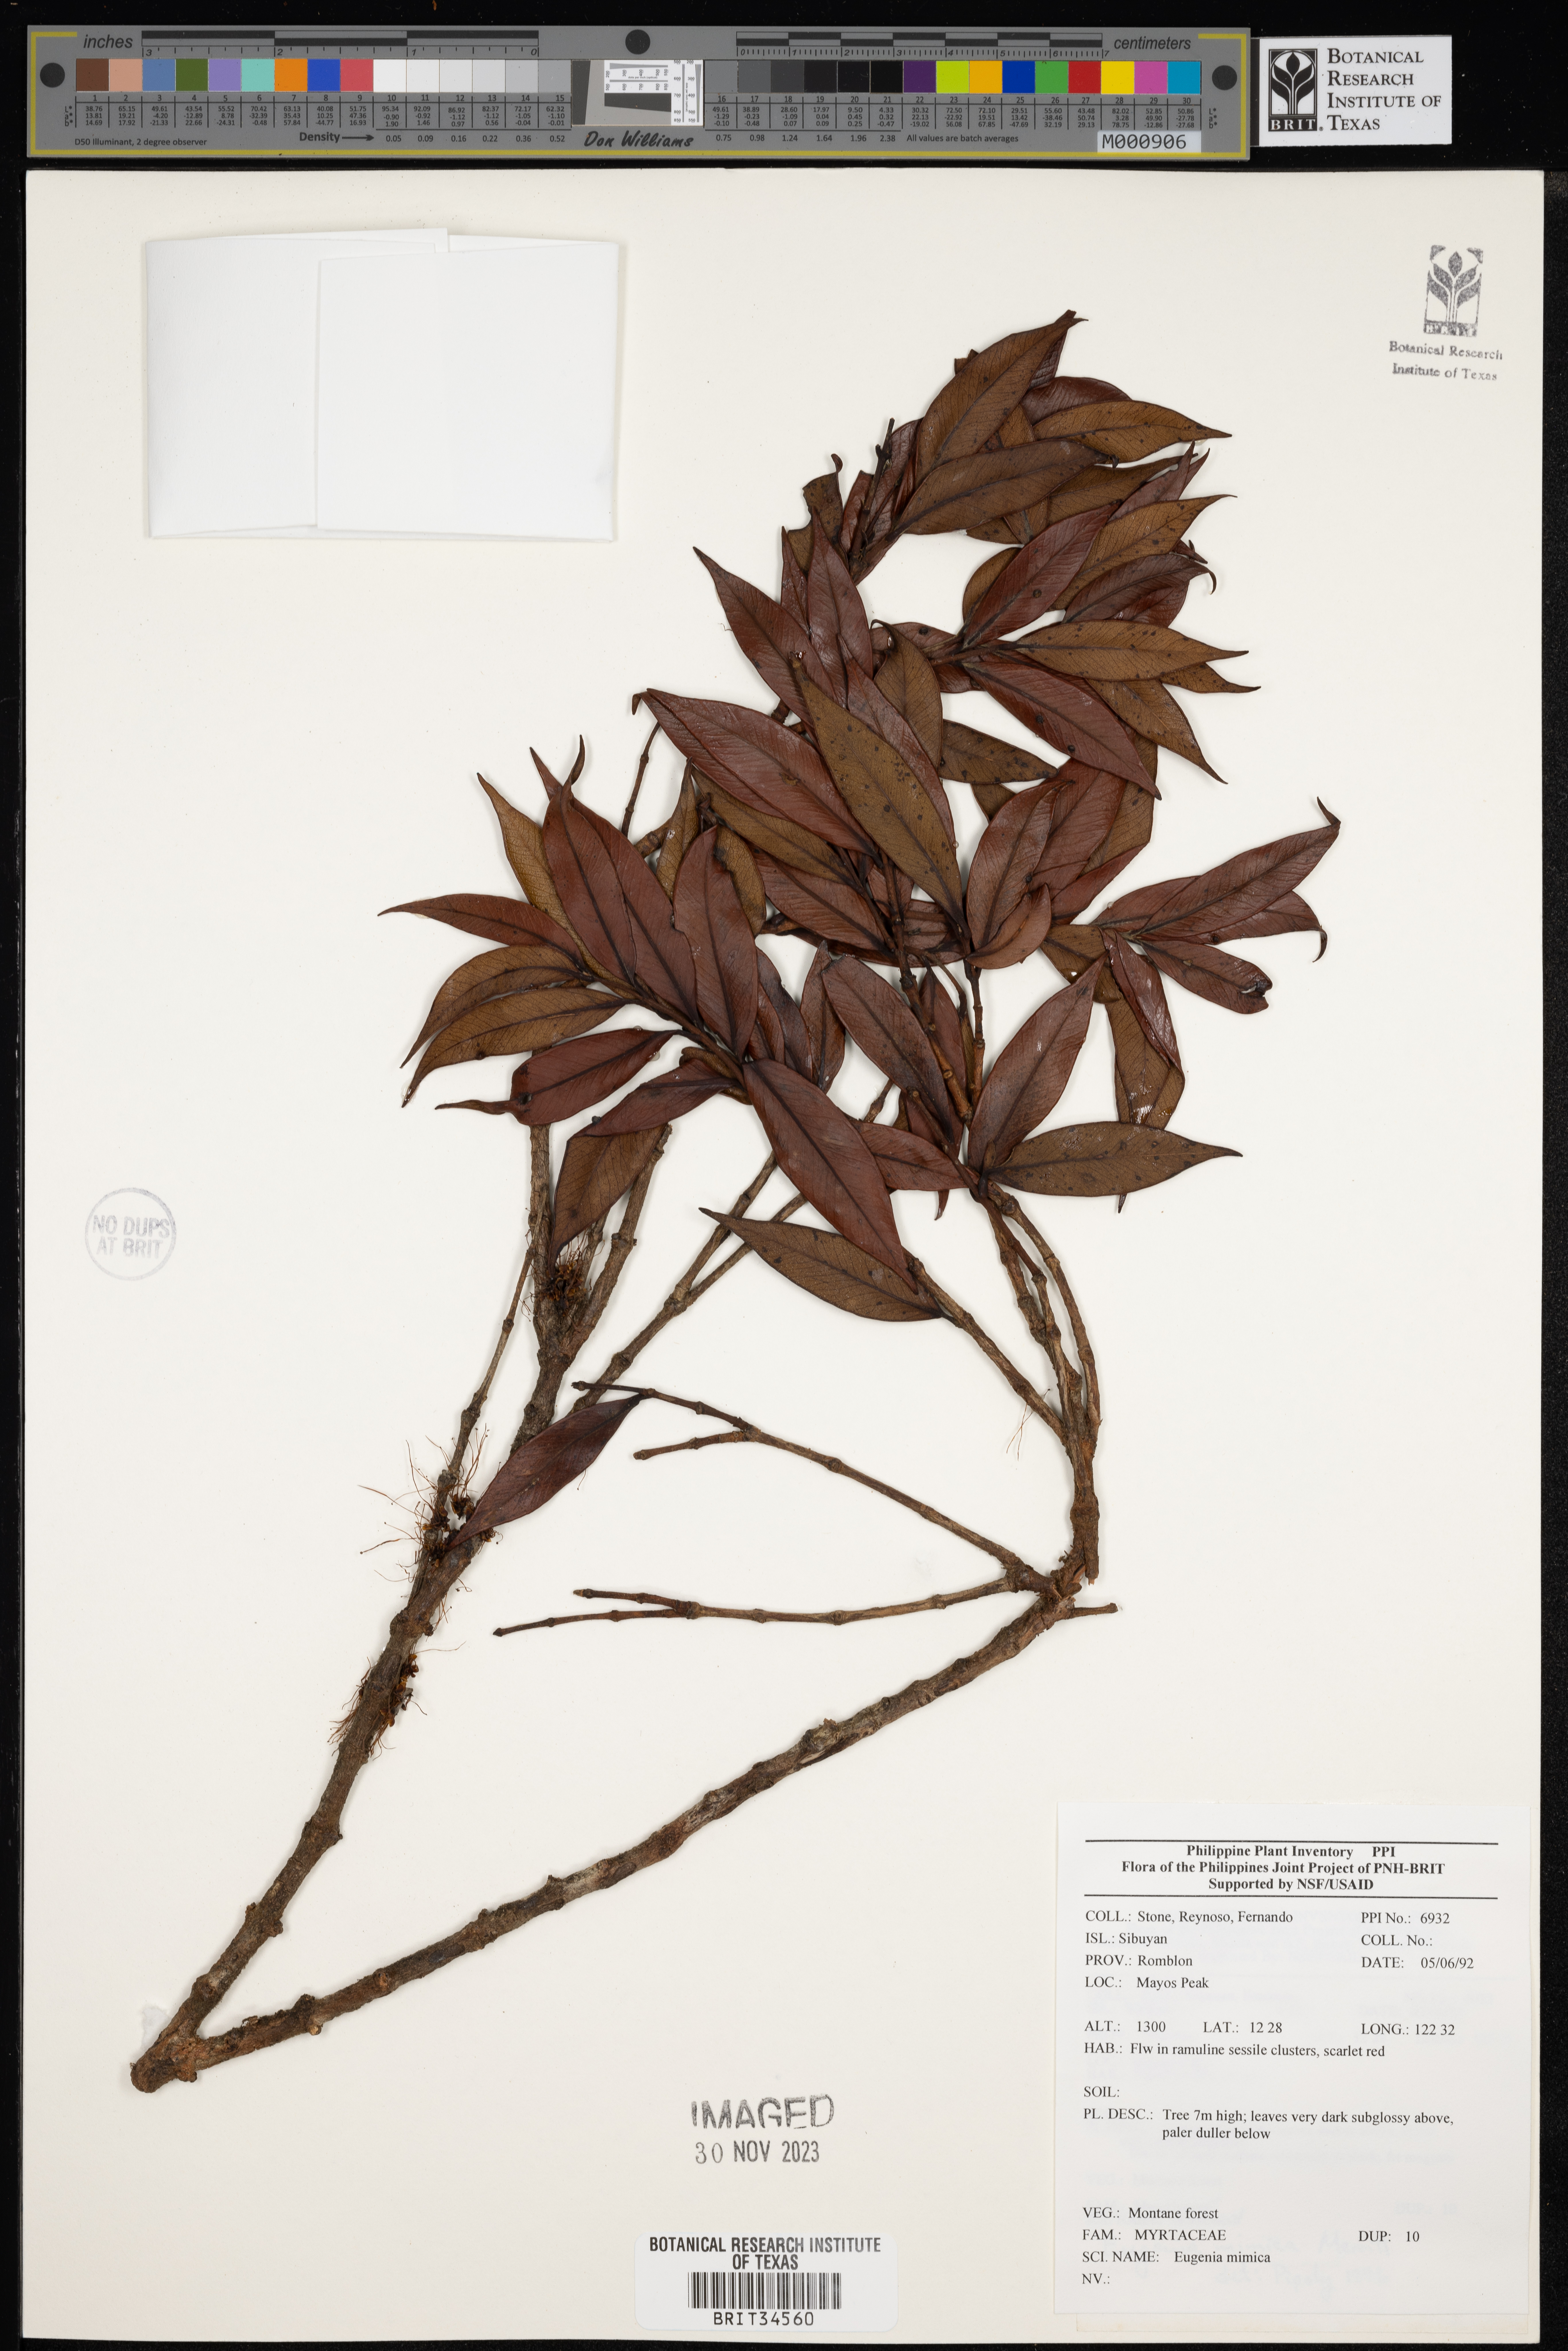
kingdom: Plantae
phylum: Tracheophyta
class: Magnoliopsida
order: Myrtales
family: Myrtaceae
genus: Syzygium
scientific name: Syzygium mimicum
